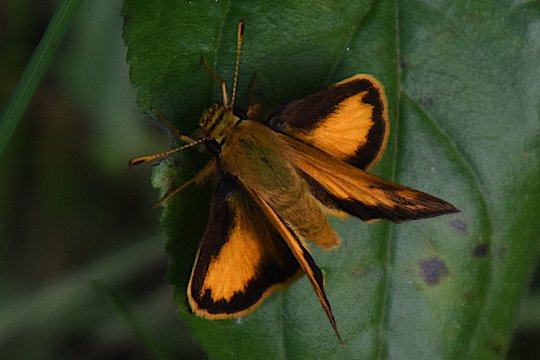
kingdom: Animalia
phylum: Arthropoda
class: Insecta
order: Lepidoptera
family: Hesperiidae
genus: Lon
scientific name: Lon zabulon
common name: Zabulon Skipper
